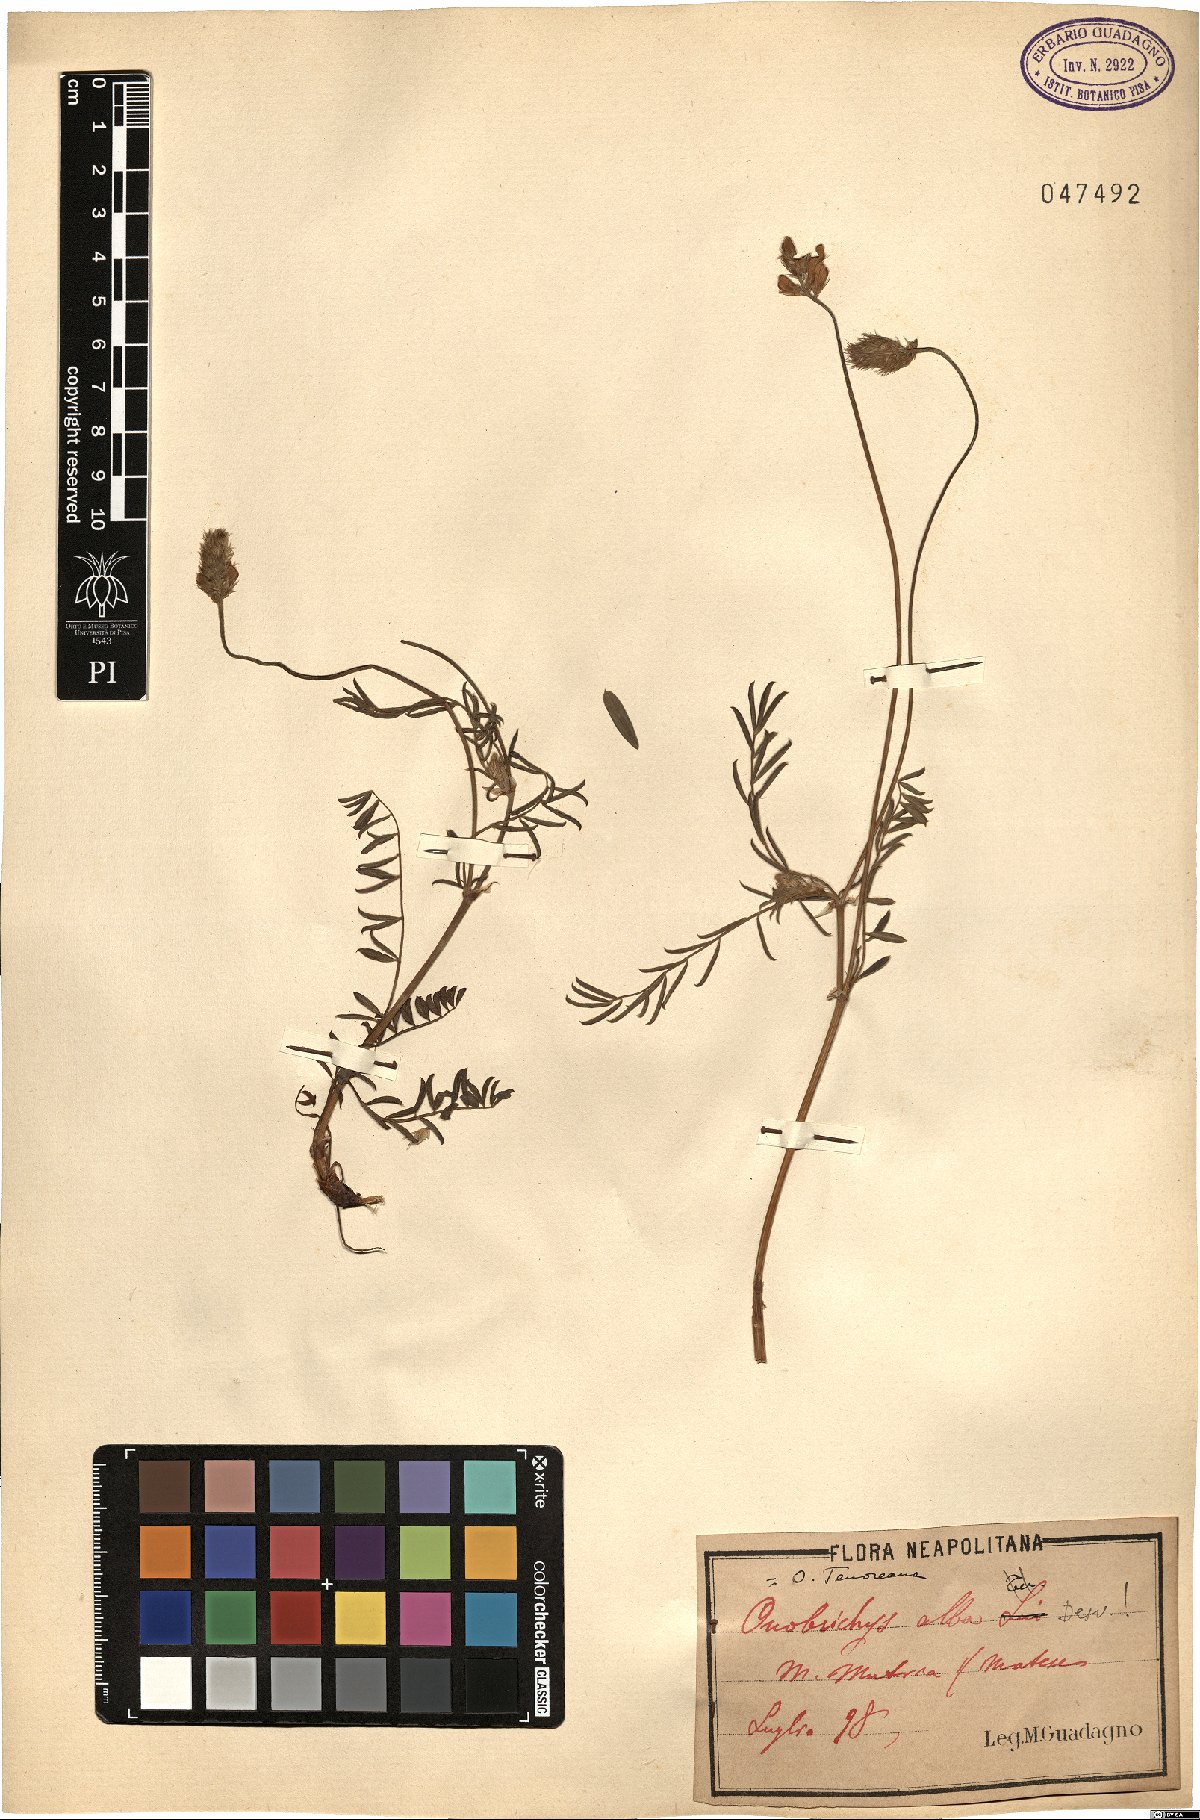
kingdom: Plantae
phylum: Tracheophyta
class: Magnoliopsida
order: Fabales
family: Fabaceae
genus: Onobrychis
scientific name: Onobrychis alba
